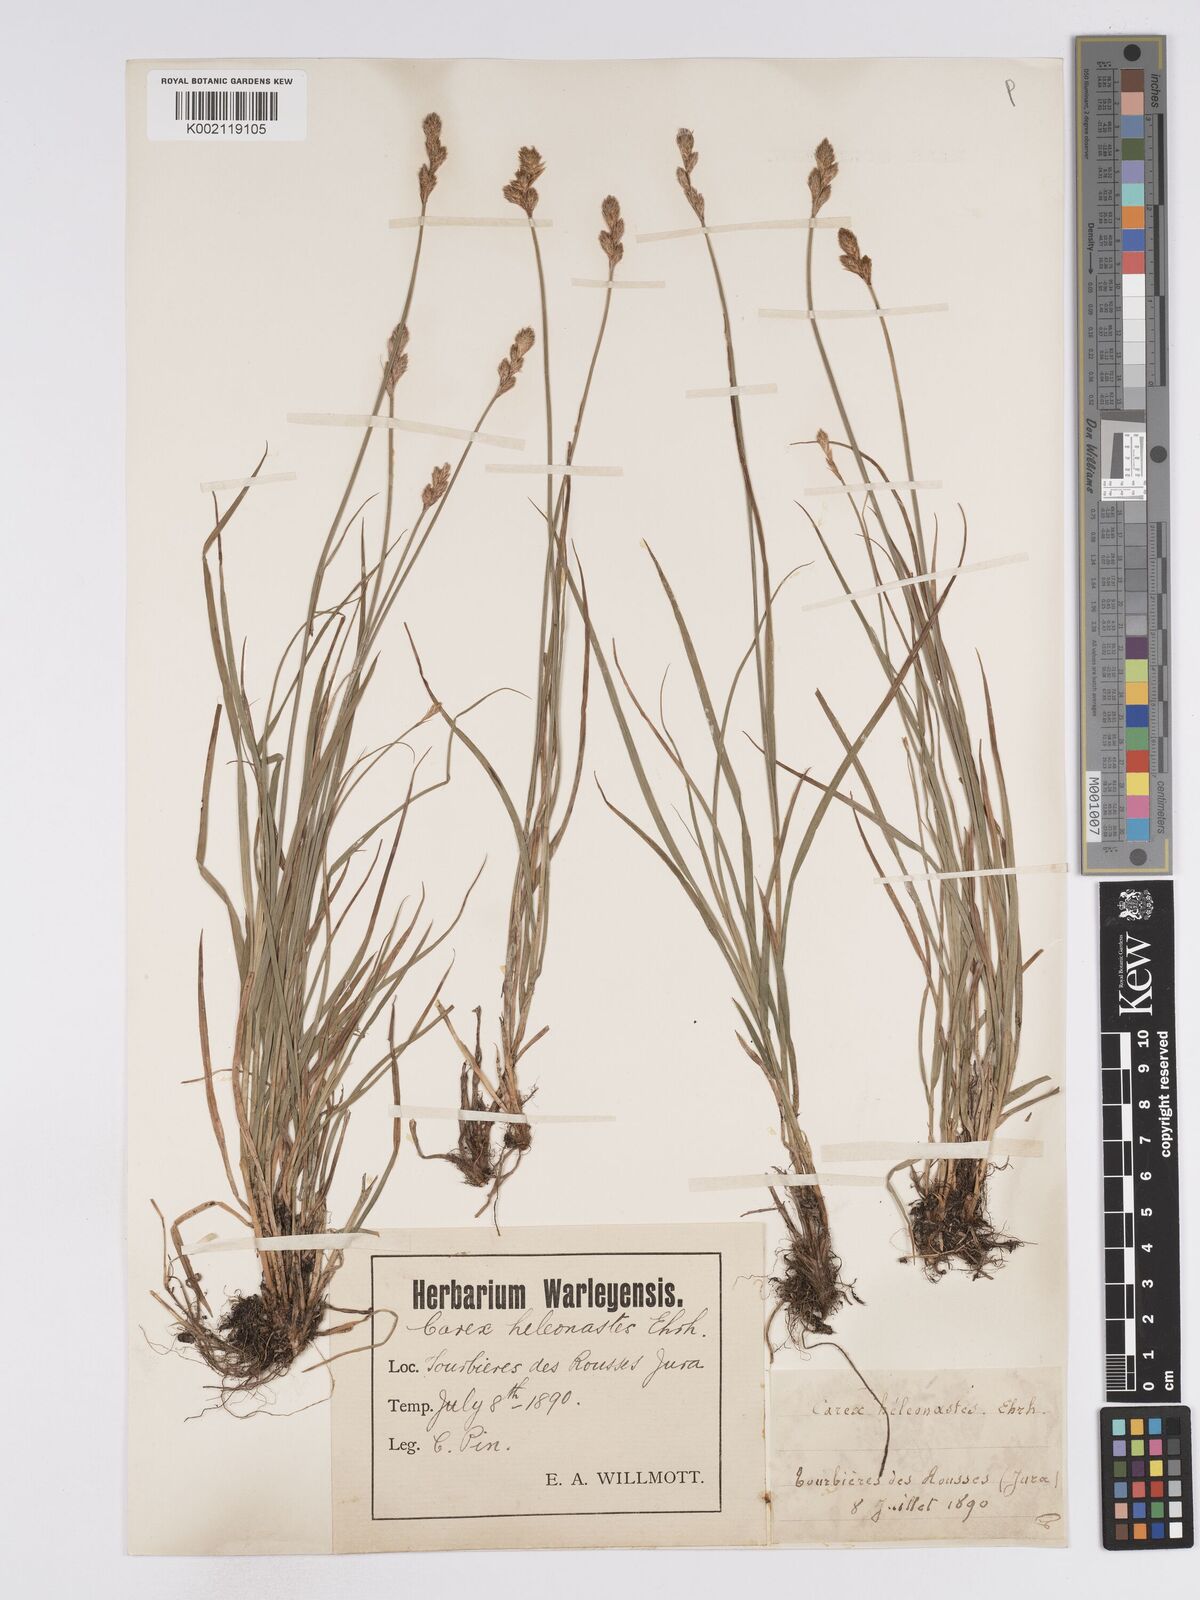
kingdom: Plantae
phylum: Tracheophyta
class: Liliopsida
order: Poales
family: Cyperaceae
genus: Carex
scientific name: Carex leporina
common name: Oval sedge
